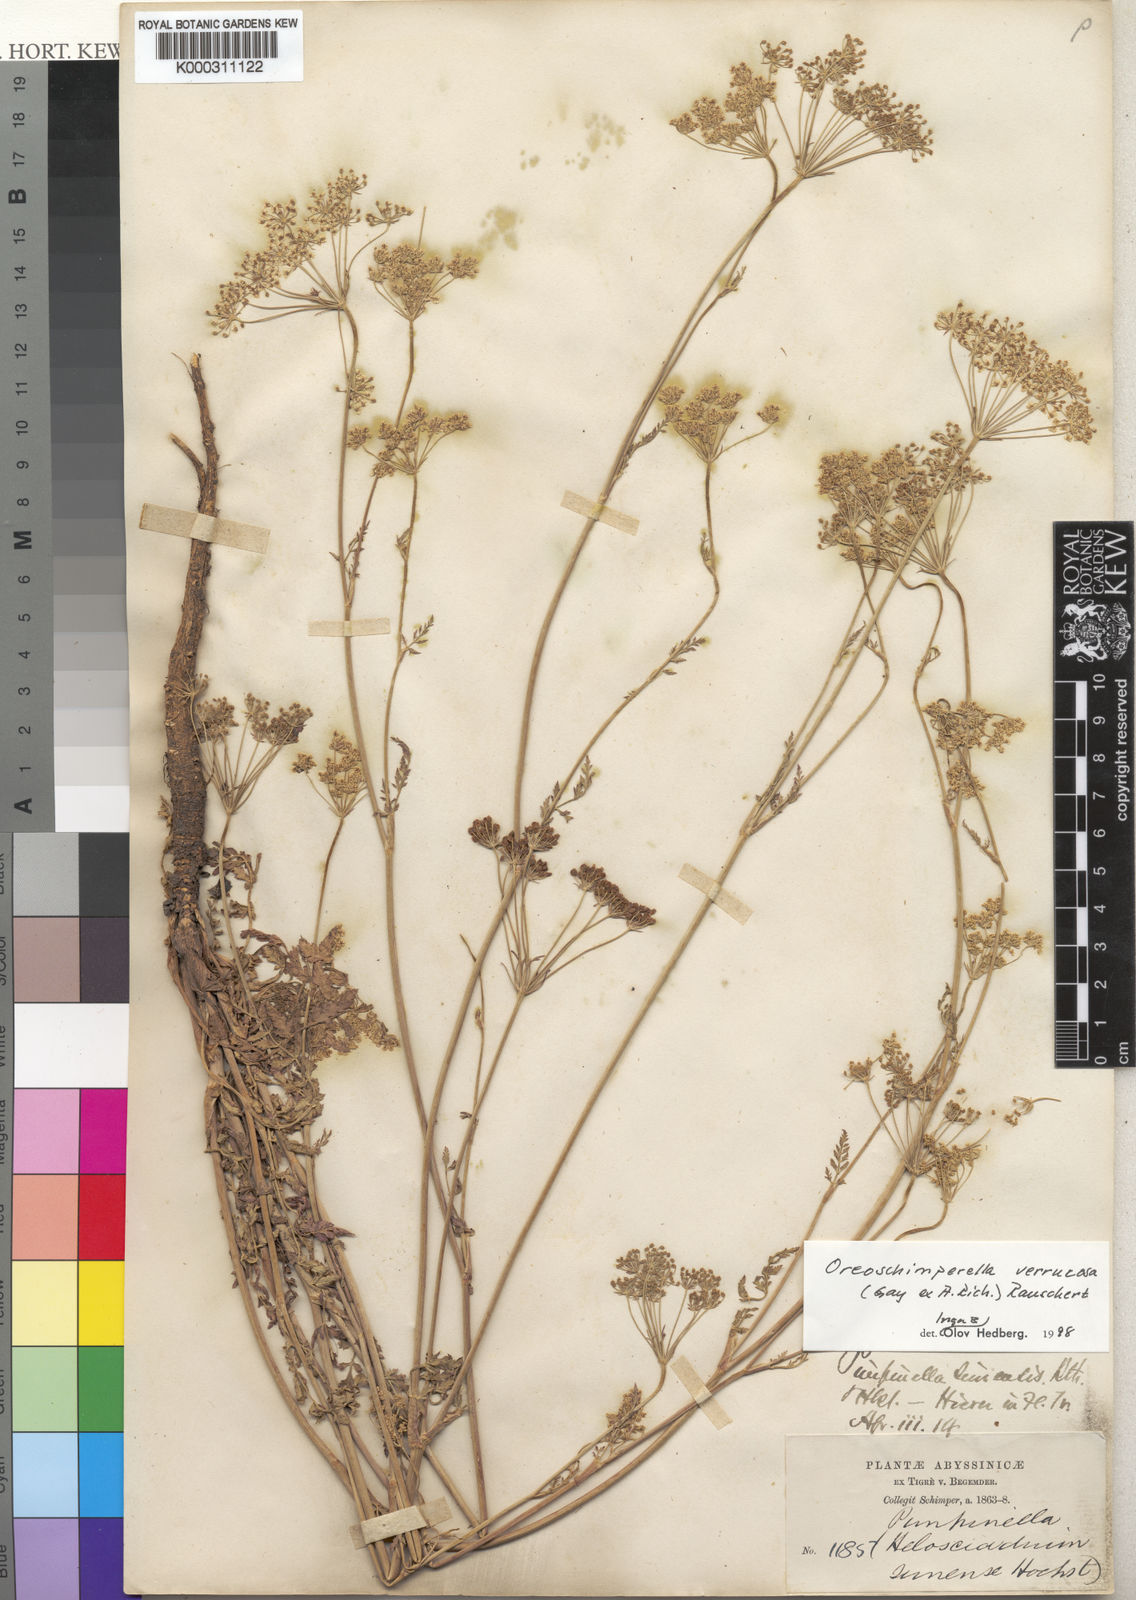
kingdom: Plantae
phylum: Tracheophyta
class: Magnoliopsida
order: Apiales
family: Apiaceae
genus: Oreoschimperella
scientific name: Oreoschimperella verrucosa
